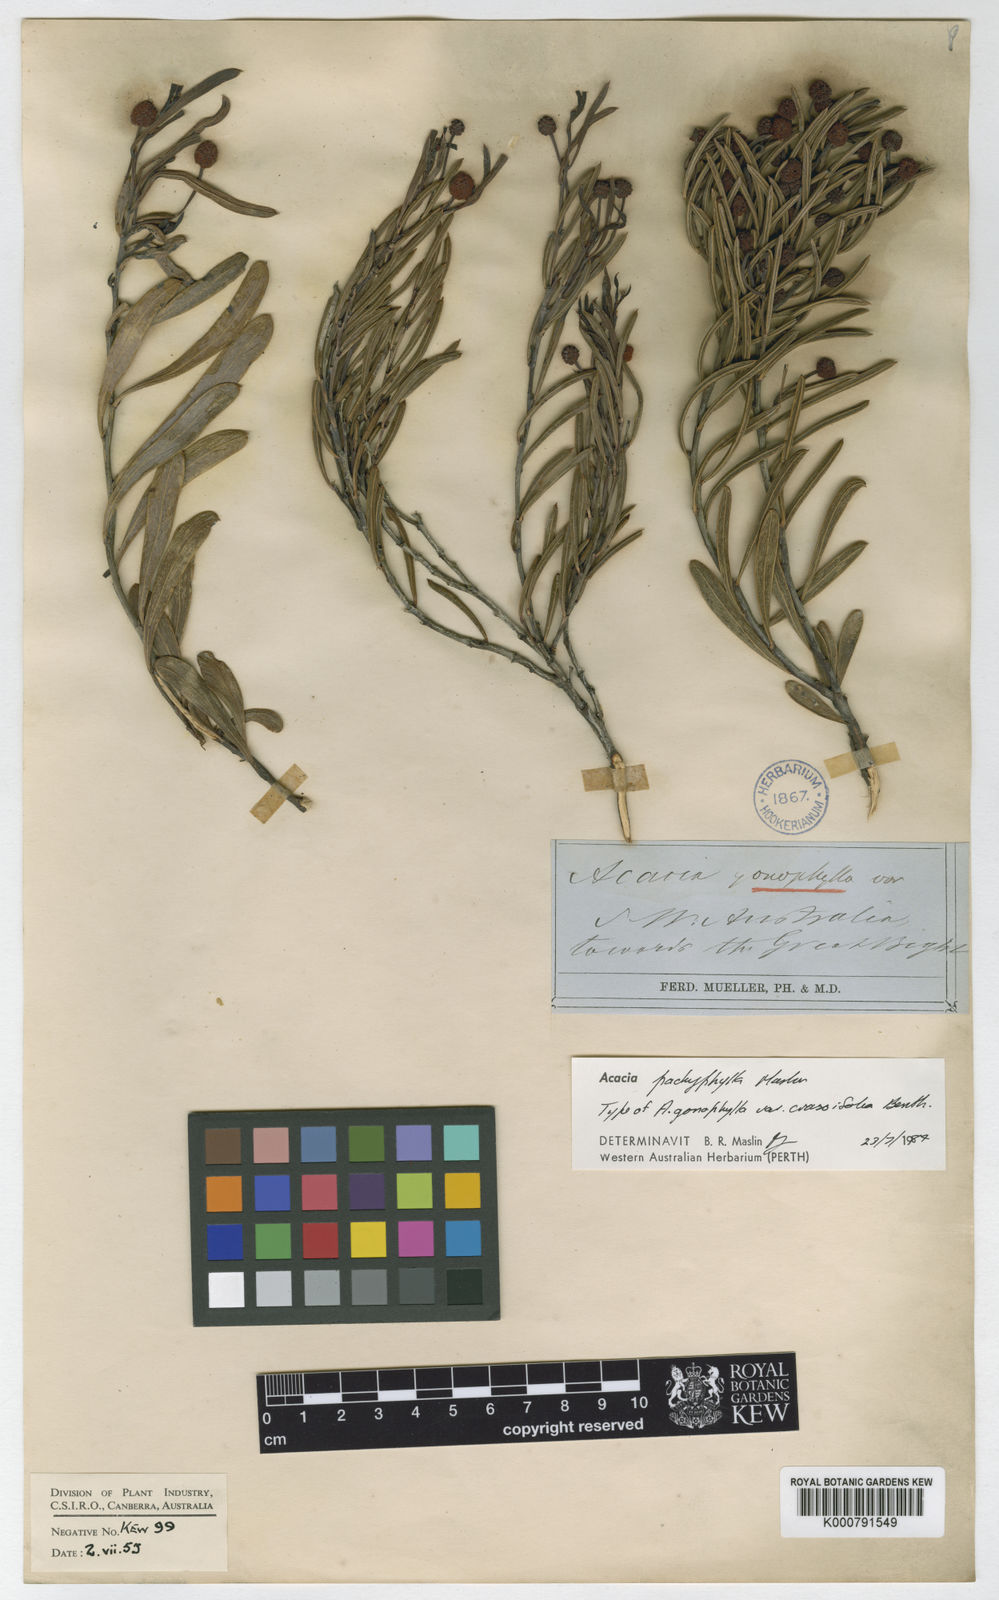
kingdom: Plantae
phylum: Tracheophyta
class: Magnoliopsida
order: Fabales
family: Fabaceae
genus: Acacia
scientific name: Acacia pachyphylla
